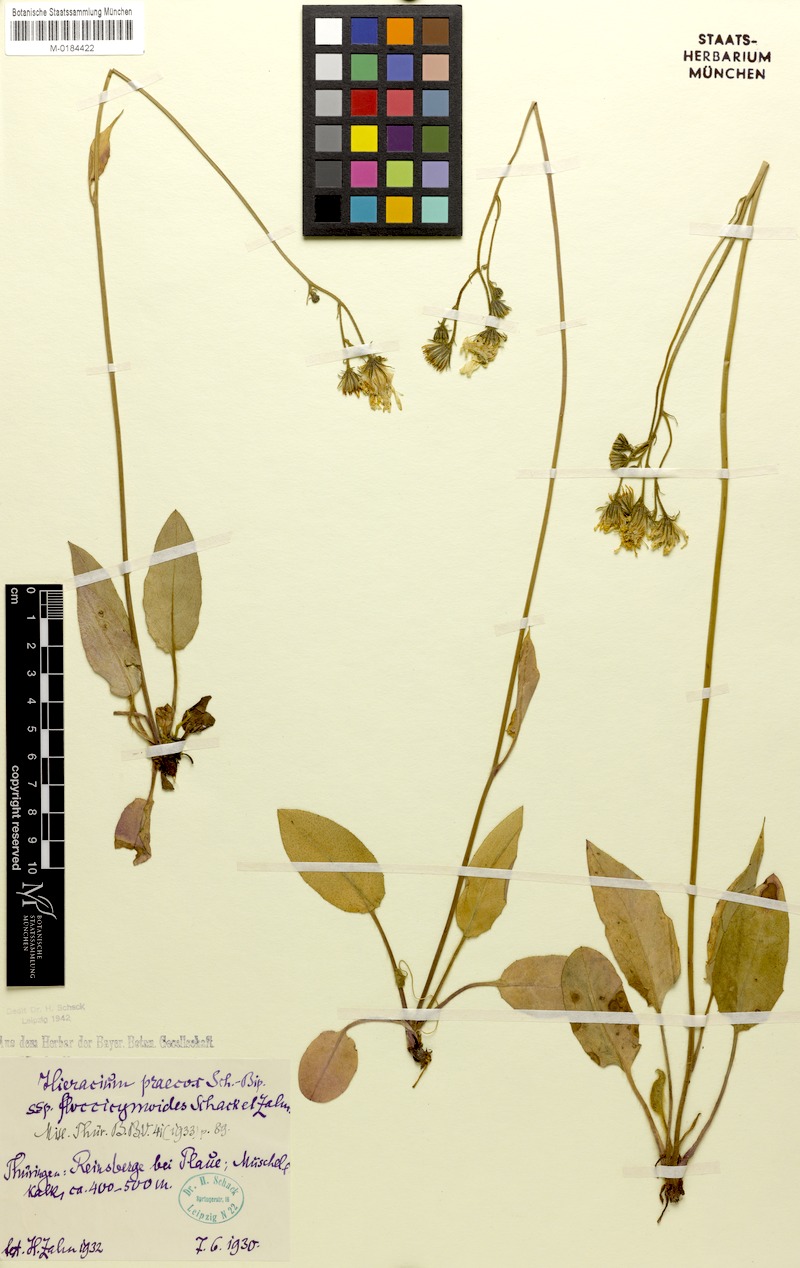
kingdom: Plantae
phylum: Tracheophyta
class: Magnoliopsida
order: Asterales
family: Asteraceae
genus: Hieracium
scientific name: Hieracium glaucinum
